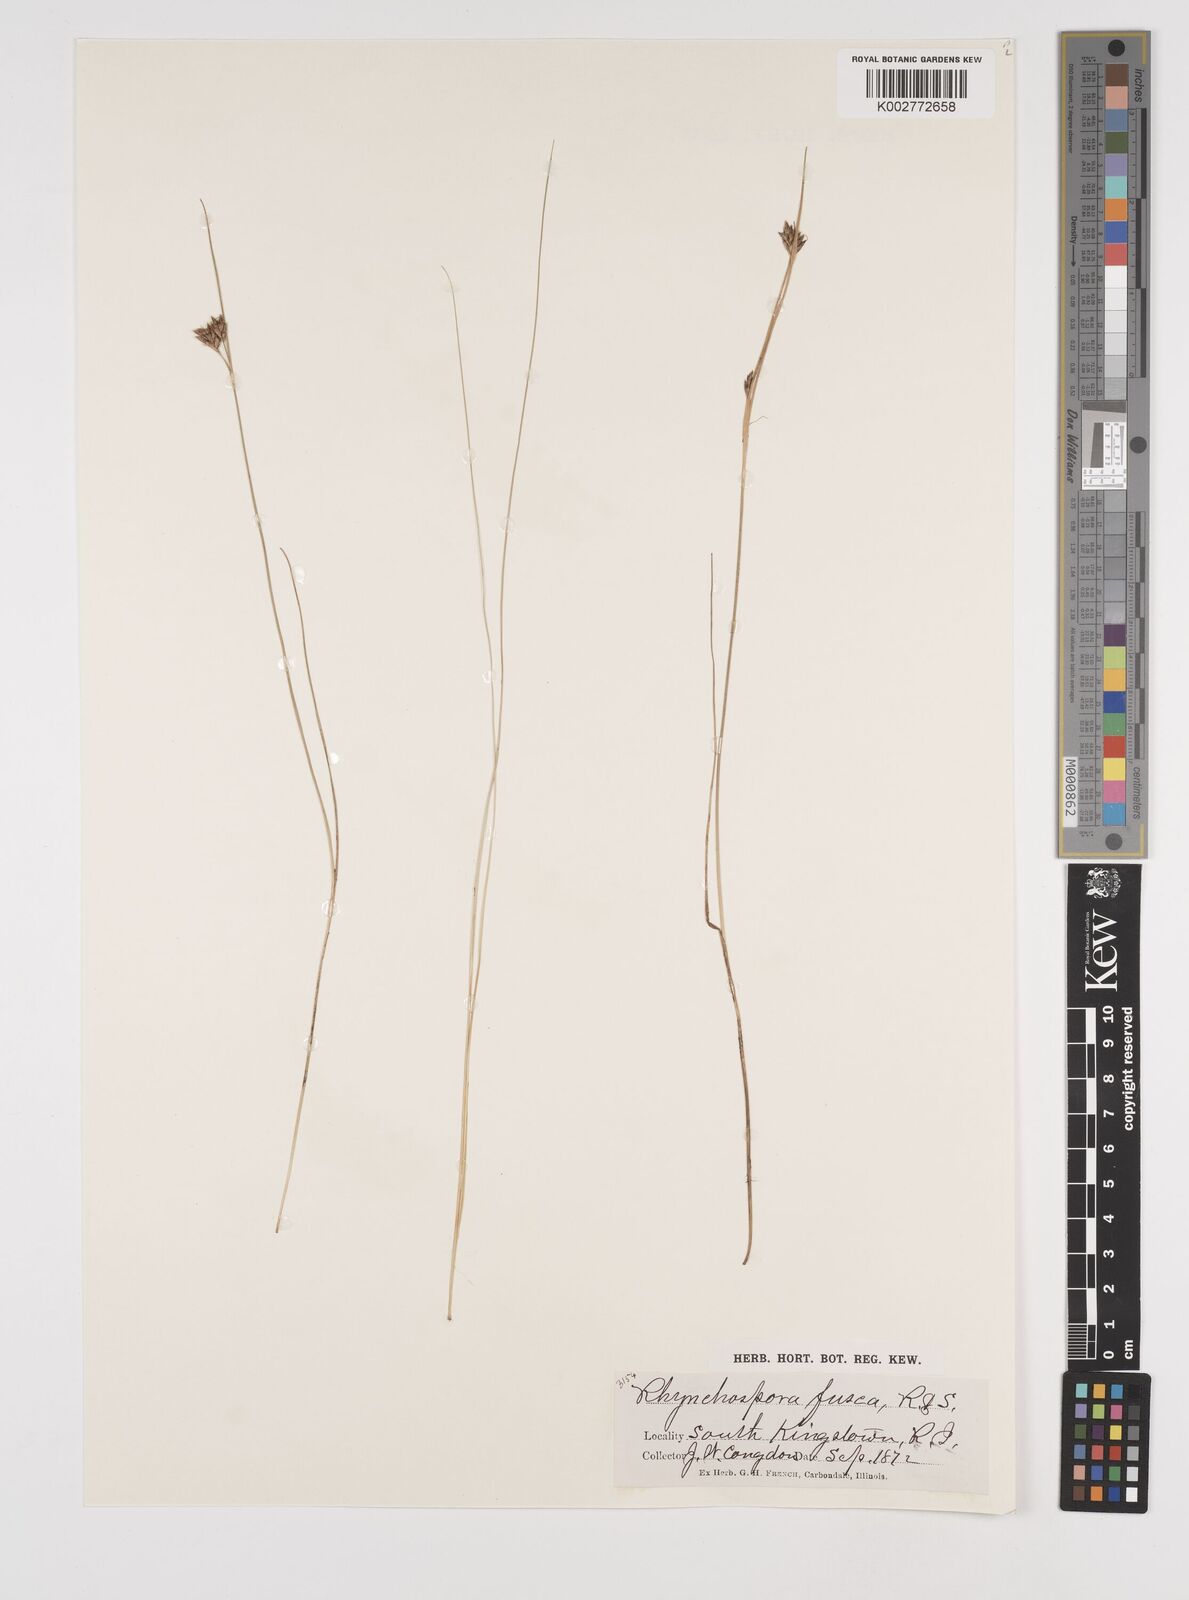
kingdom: Plantae
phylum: Tracheophyta
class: Liliopsida
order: Poales
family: Cyperaceae
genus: Rhynchospora
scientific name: Rhynchospora fusca
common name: Brown beak-sedge
